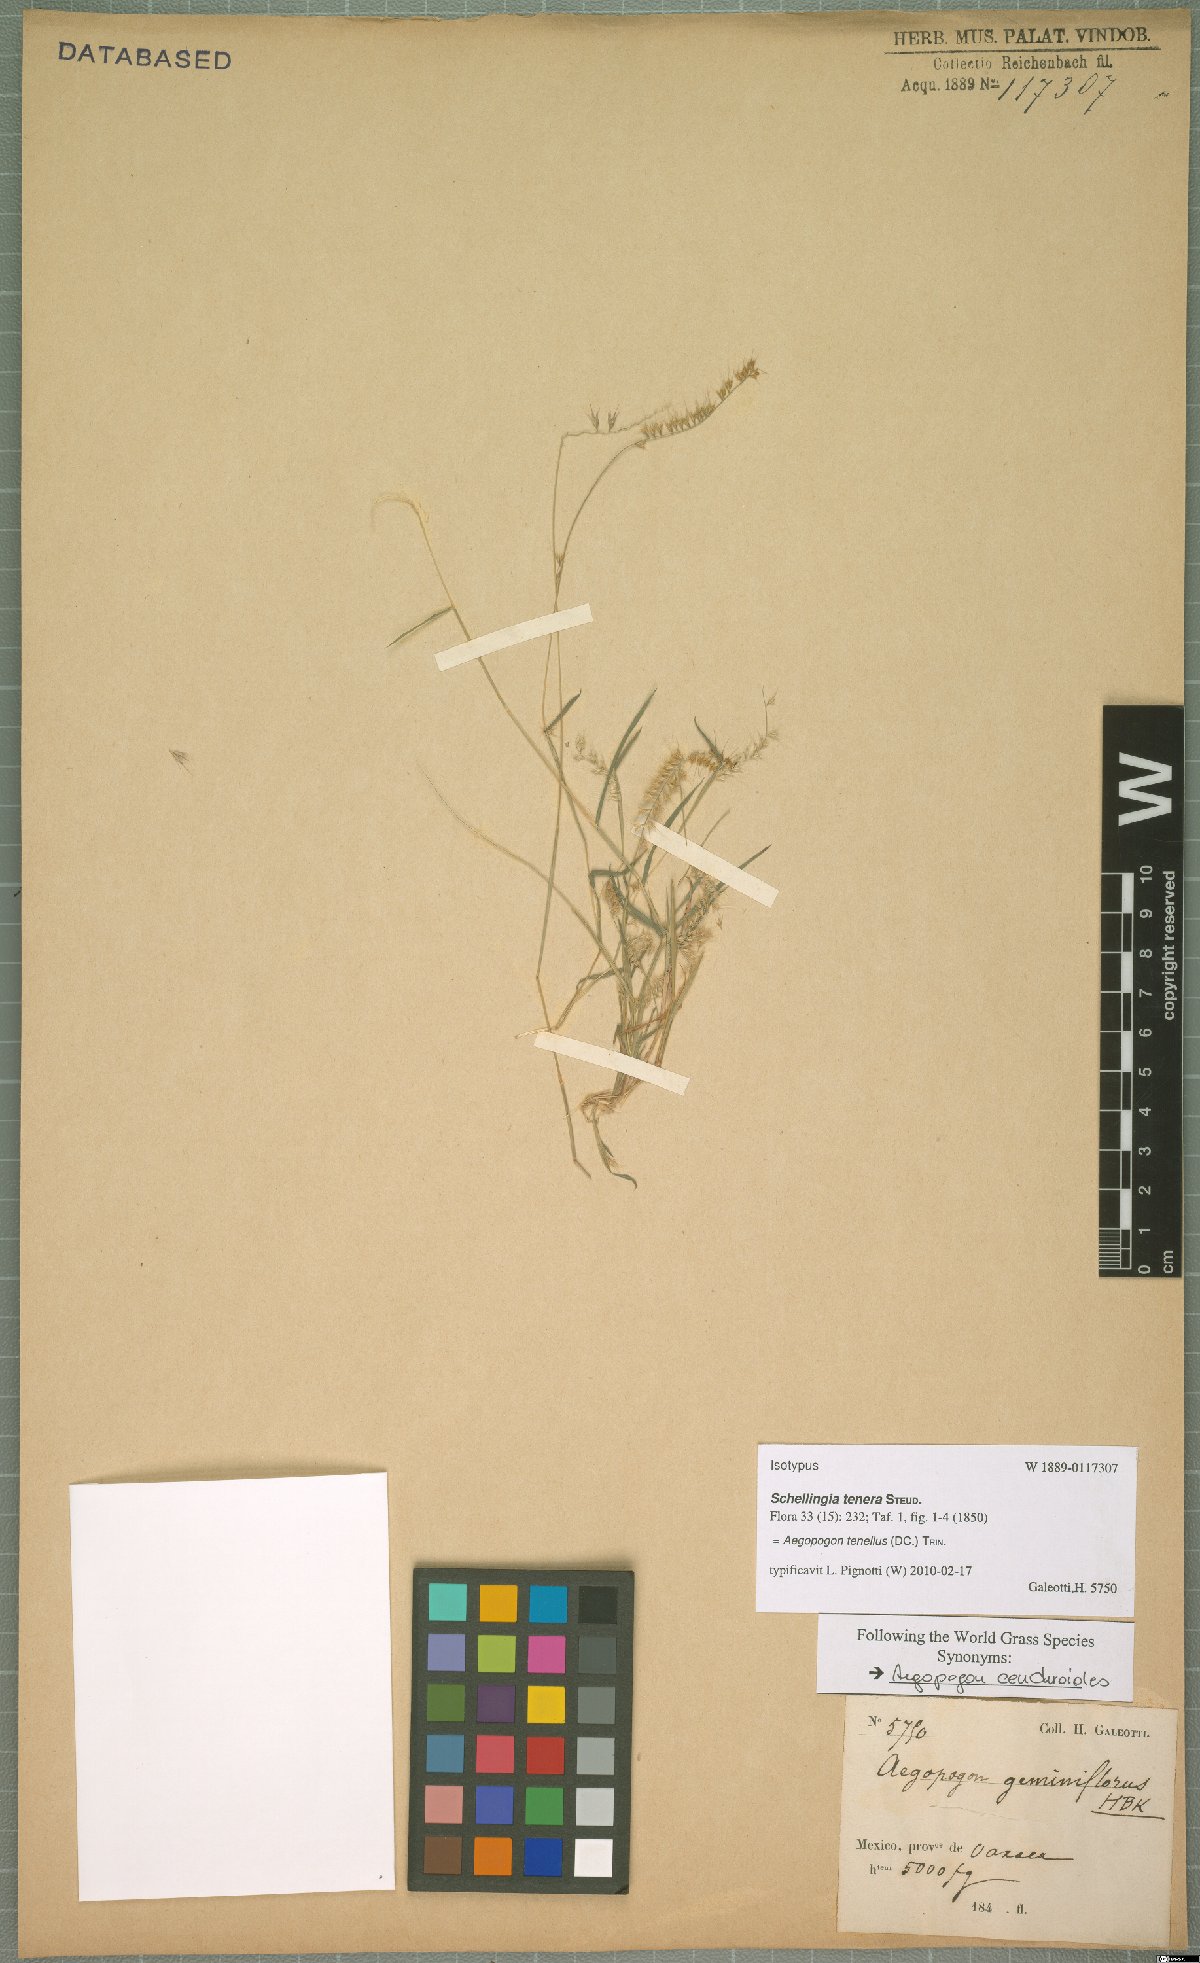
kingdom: Plantae
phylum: Tracheophyta
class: Liliopsida
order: Poales
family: Poaceae
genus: Muhlenbergia
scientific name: Muhlenbergia uniseta
